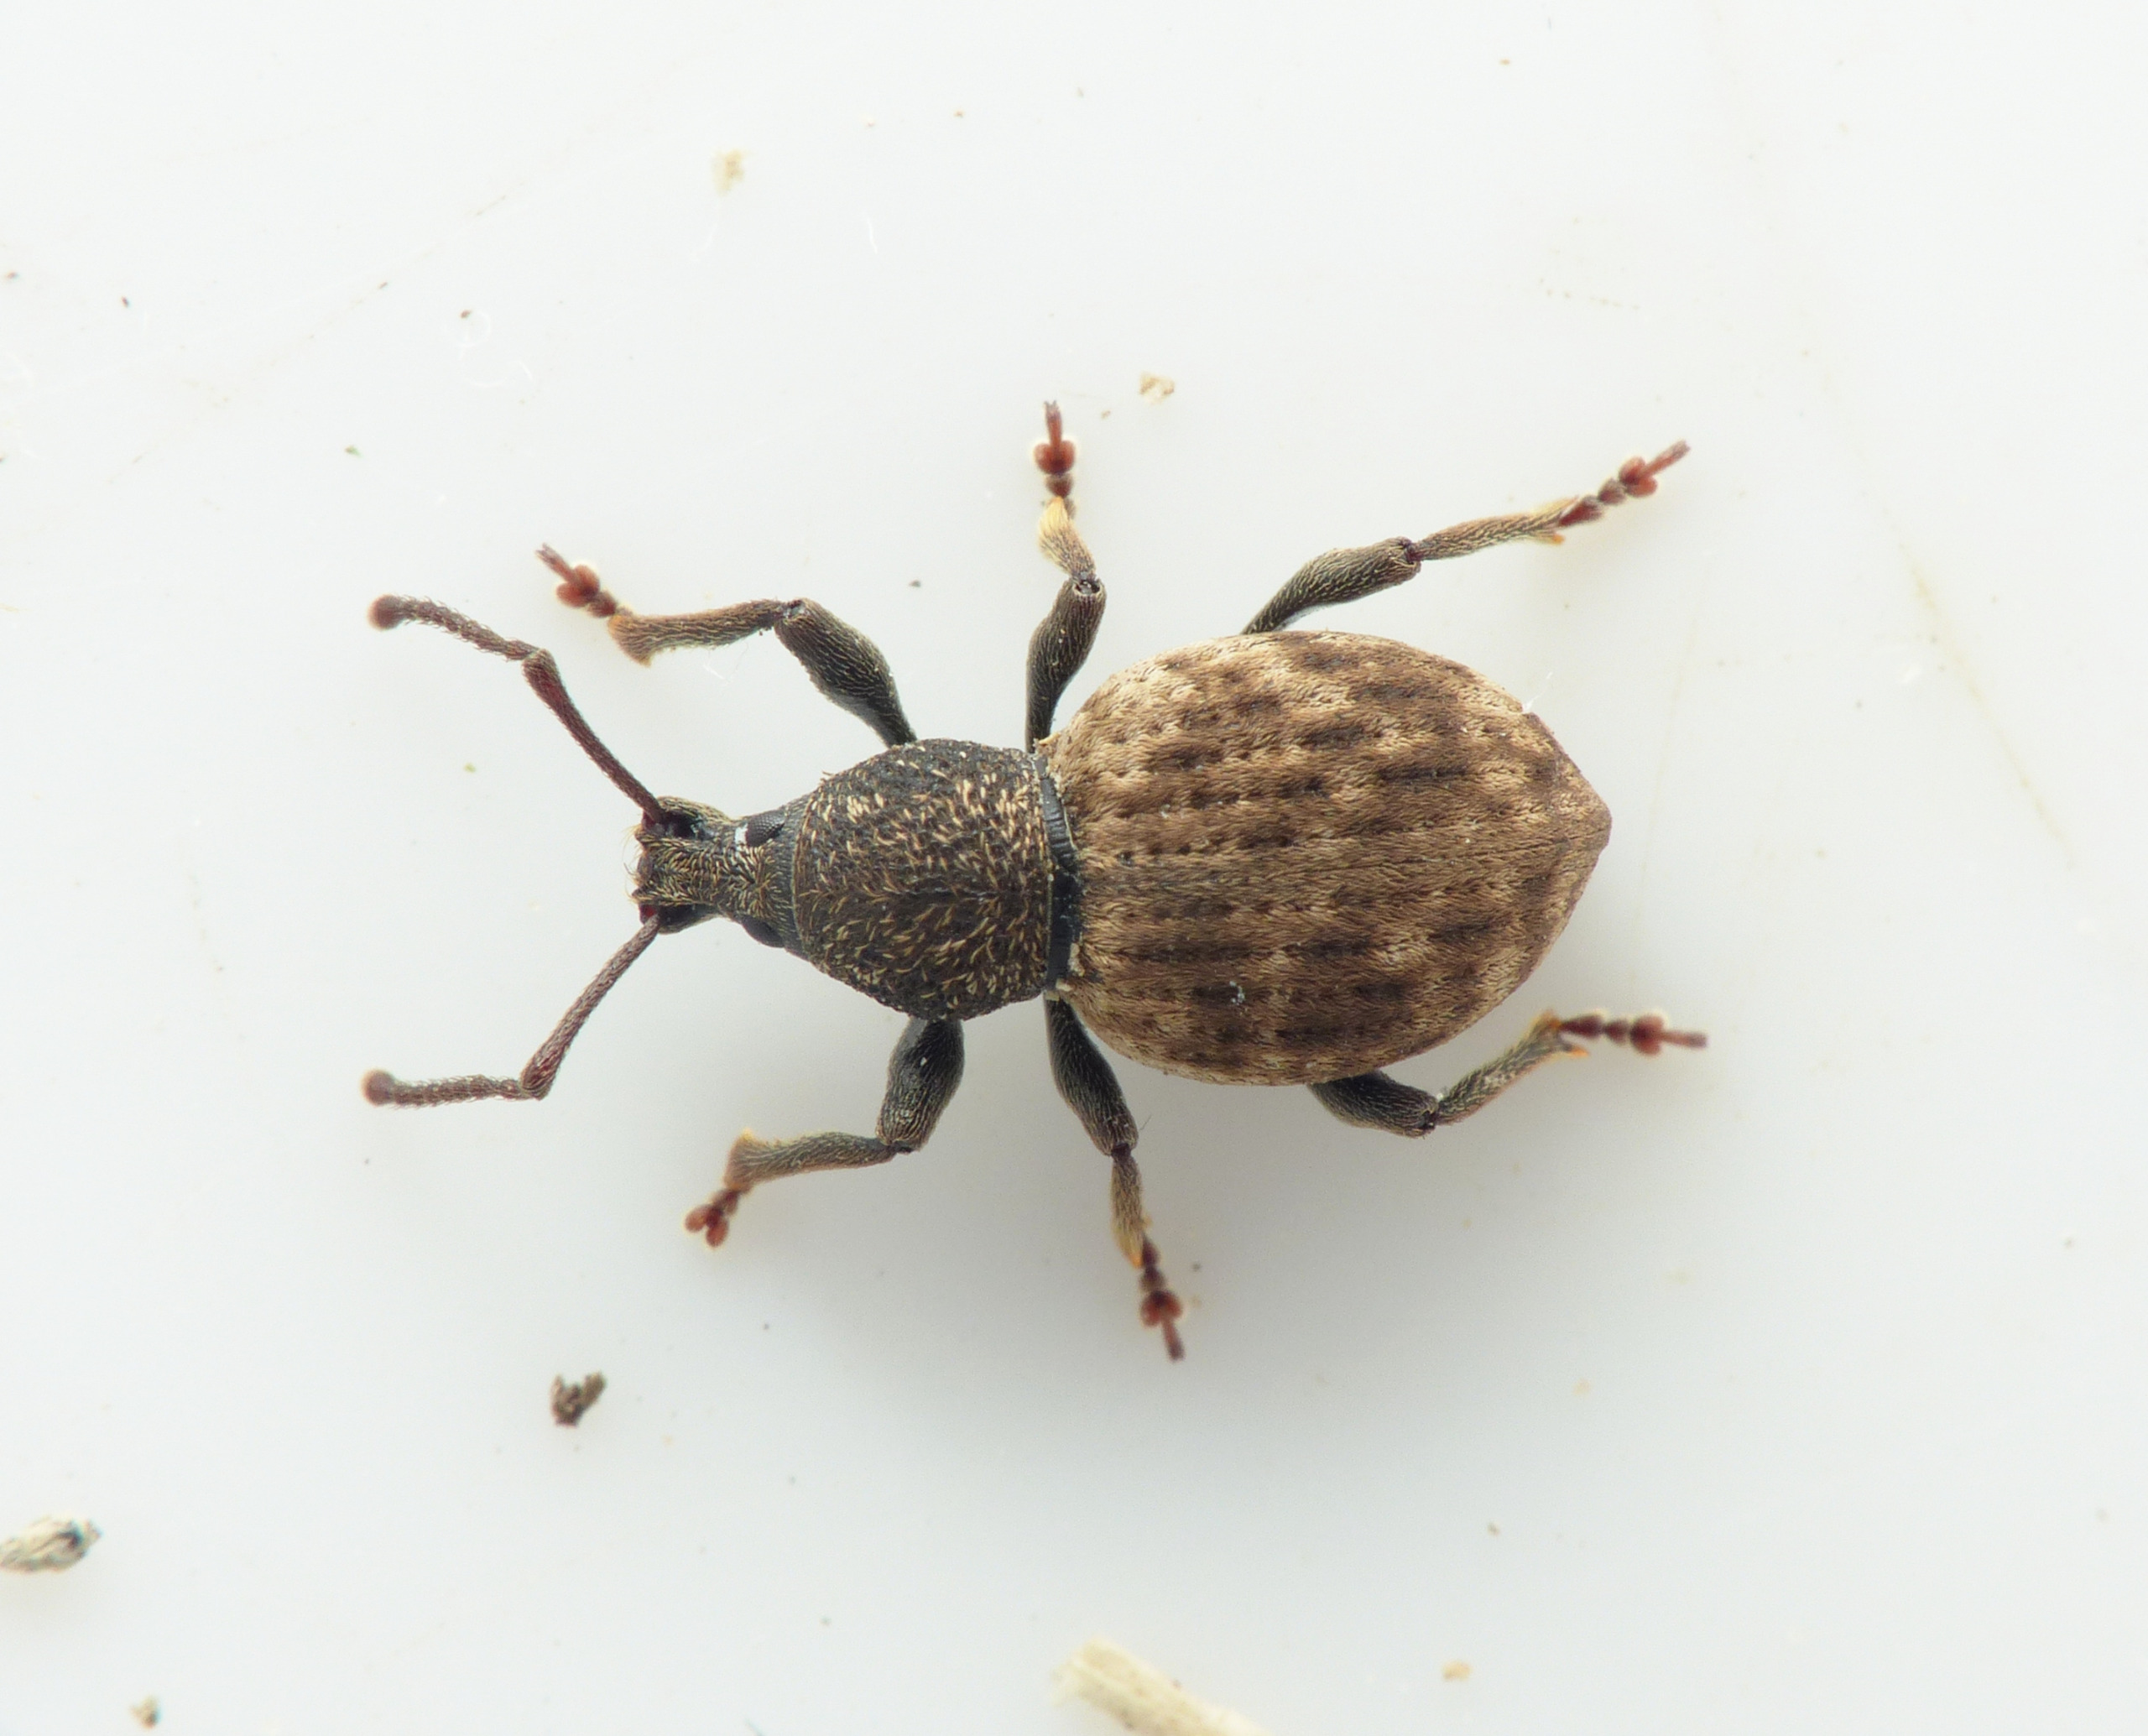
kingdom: Animalia
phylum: Arthropoda
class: Insecta
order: Coleoptera
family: Curculionidae
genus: Otiorhynchus
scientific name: Otiorhynchus raucus
